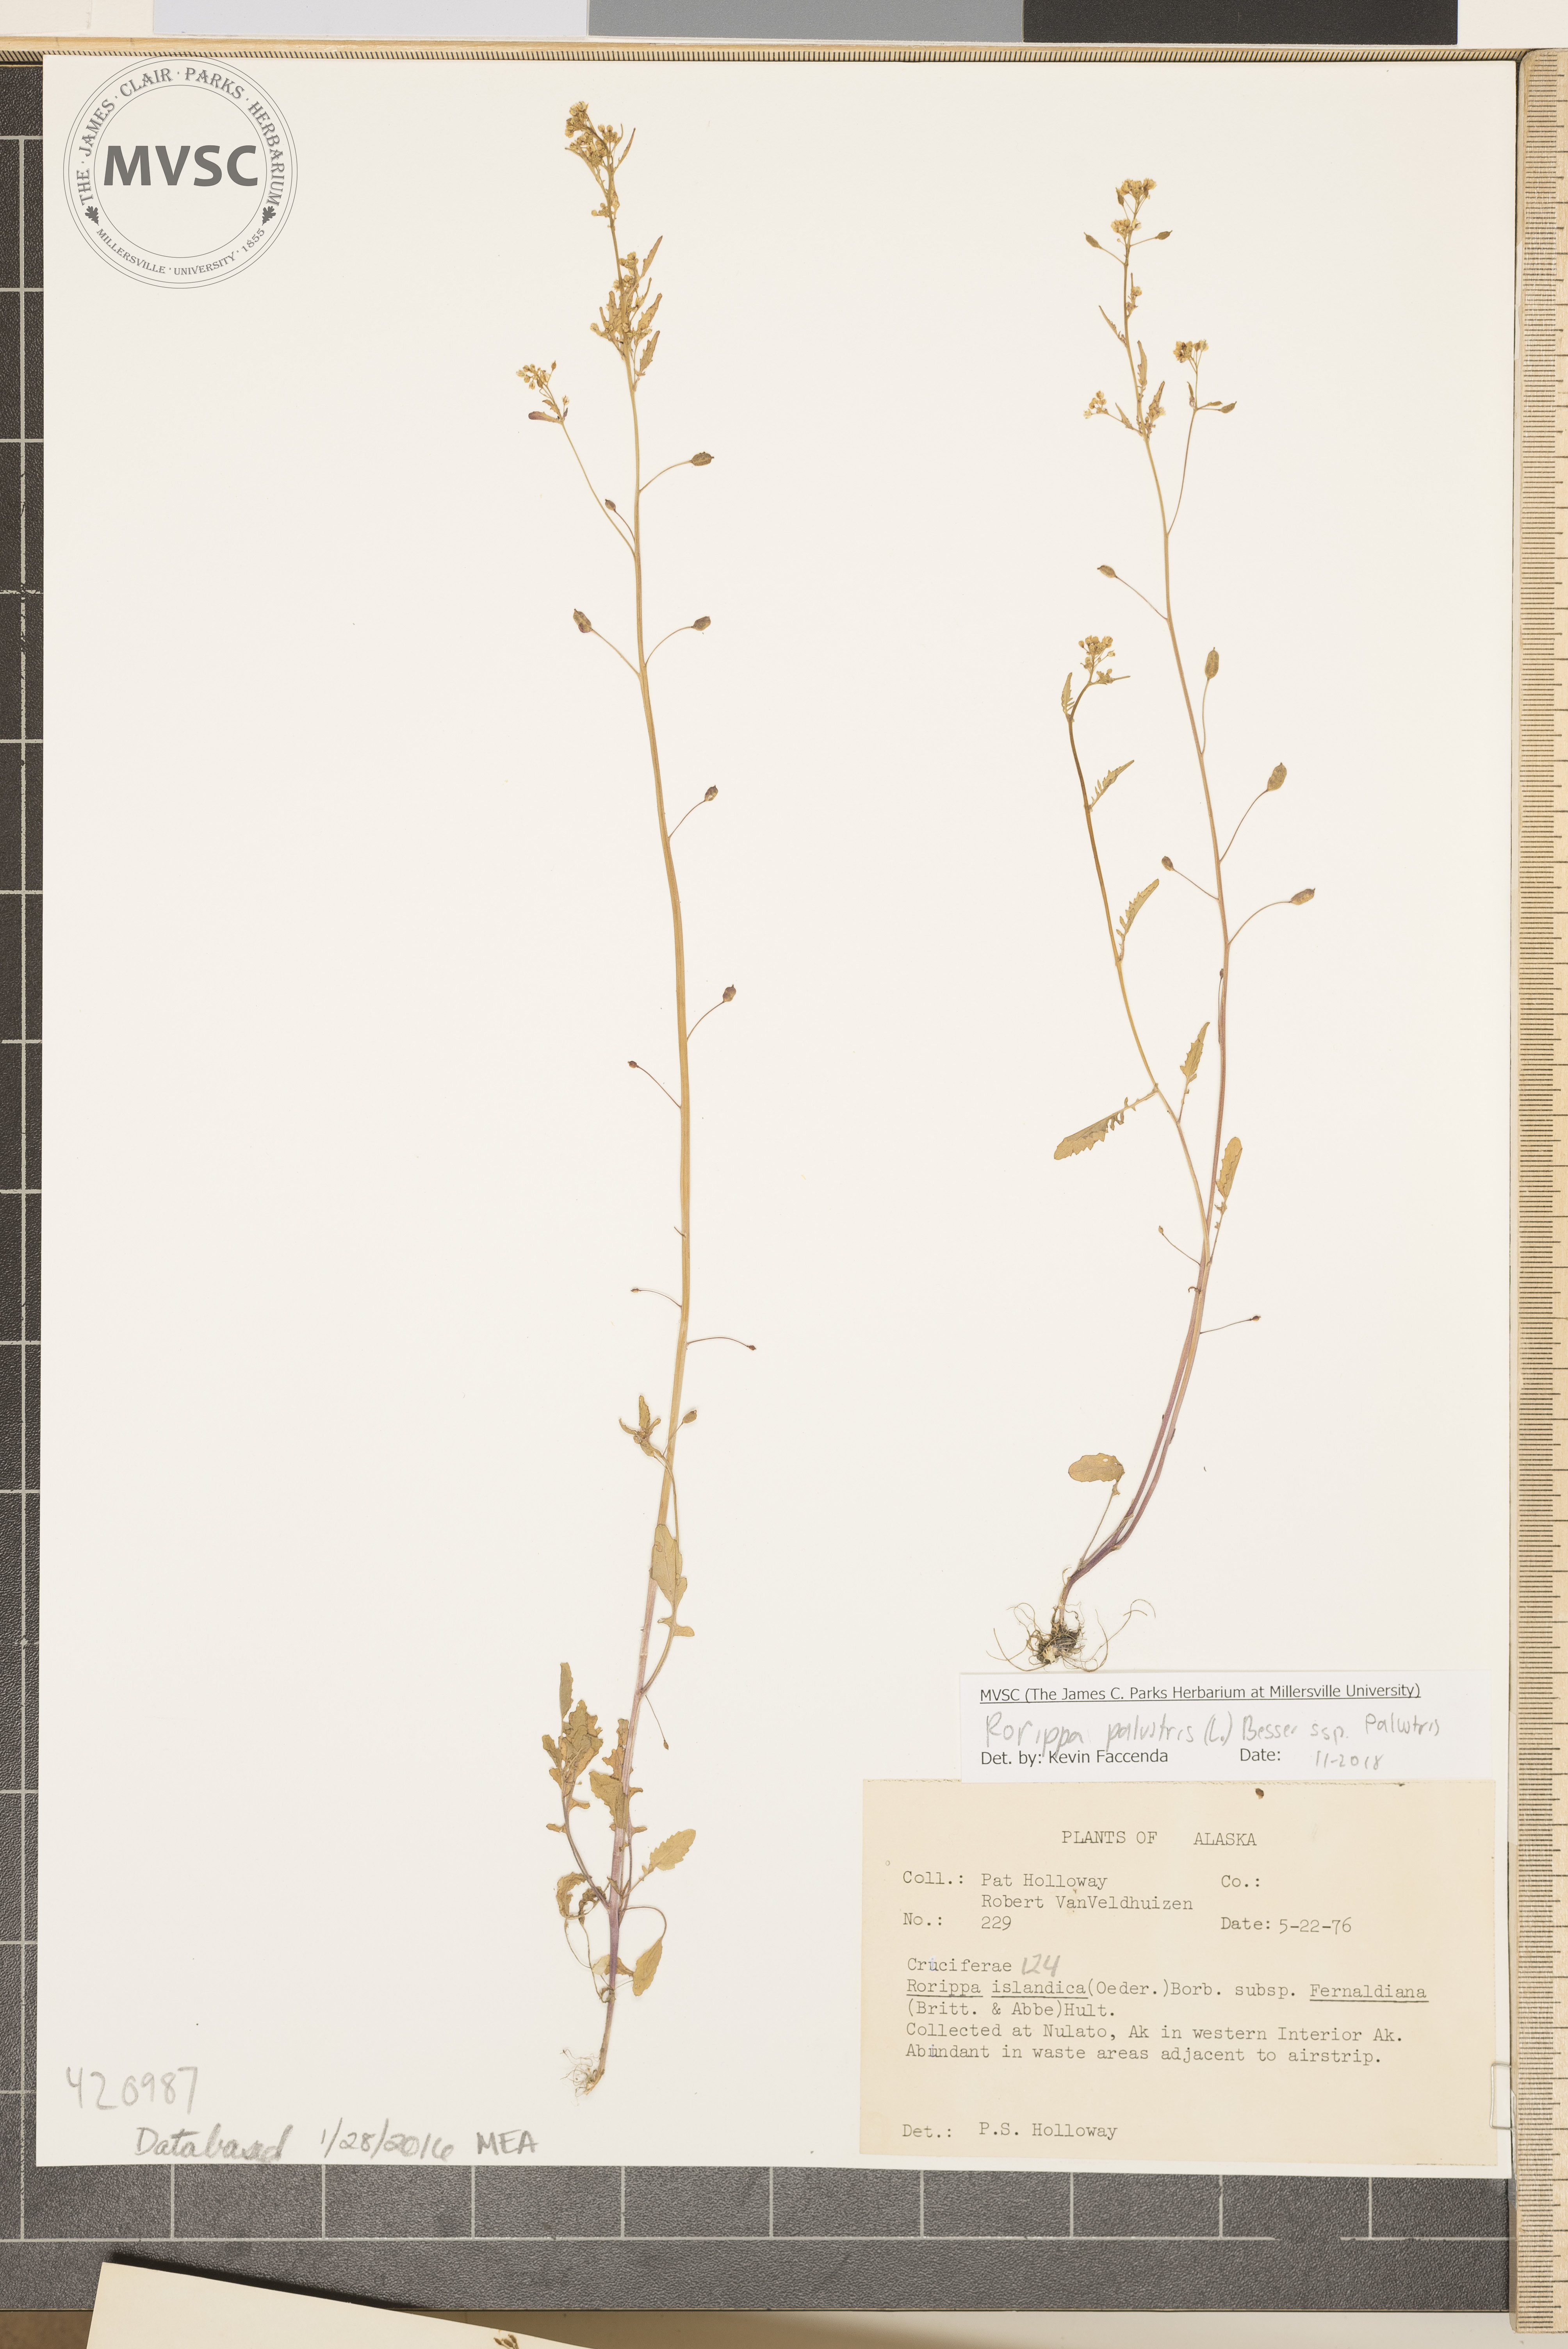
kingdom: Plantae
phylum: Tracheophyta
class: Magnoliopsida
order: Brassicales
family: Brassicaceae
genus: Rorippa
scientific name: Rorippa palustris
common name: Northern yellowcress
